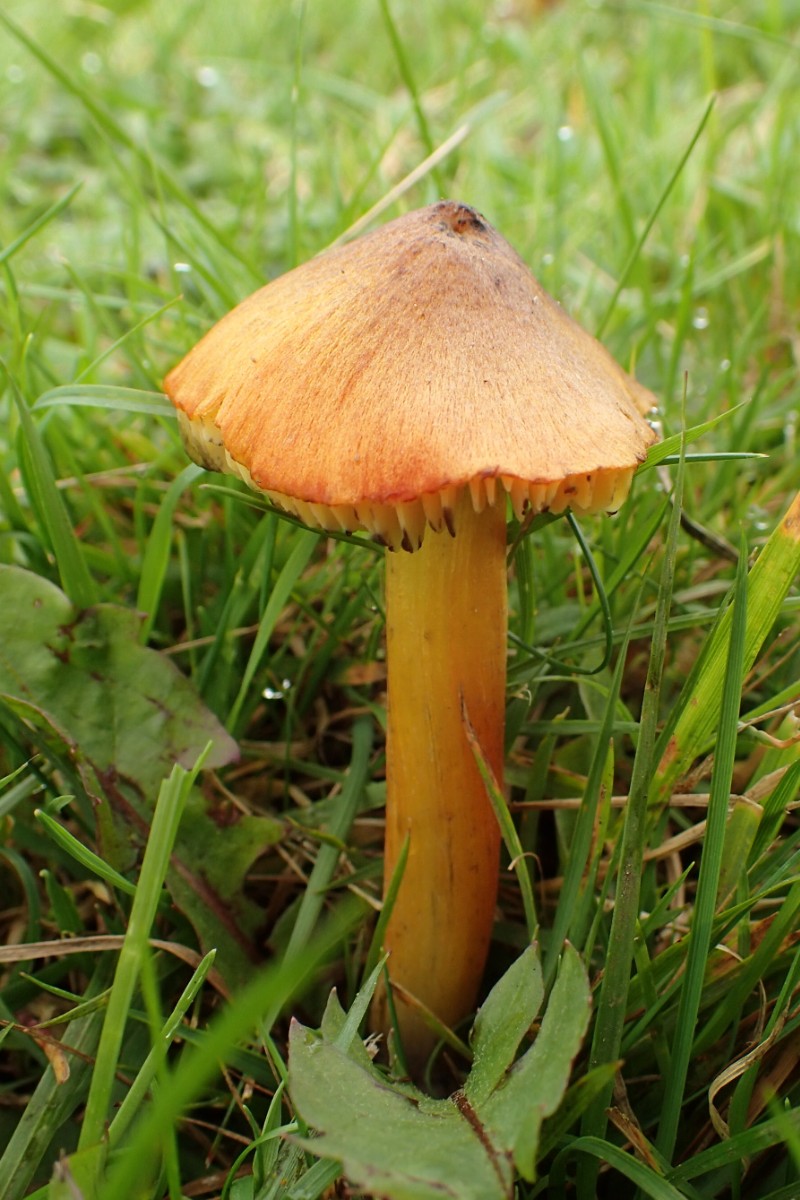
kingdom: Fungi
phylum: Basidiomycota
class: Agaricomycetes
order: Agaricales
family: Hygrophoraceae
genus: Hygrocybe
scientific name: Hygrocybe conica
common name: kegle-vokshat
